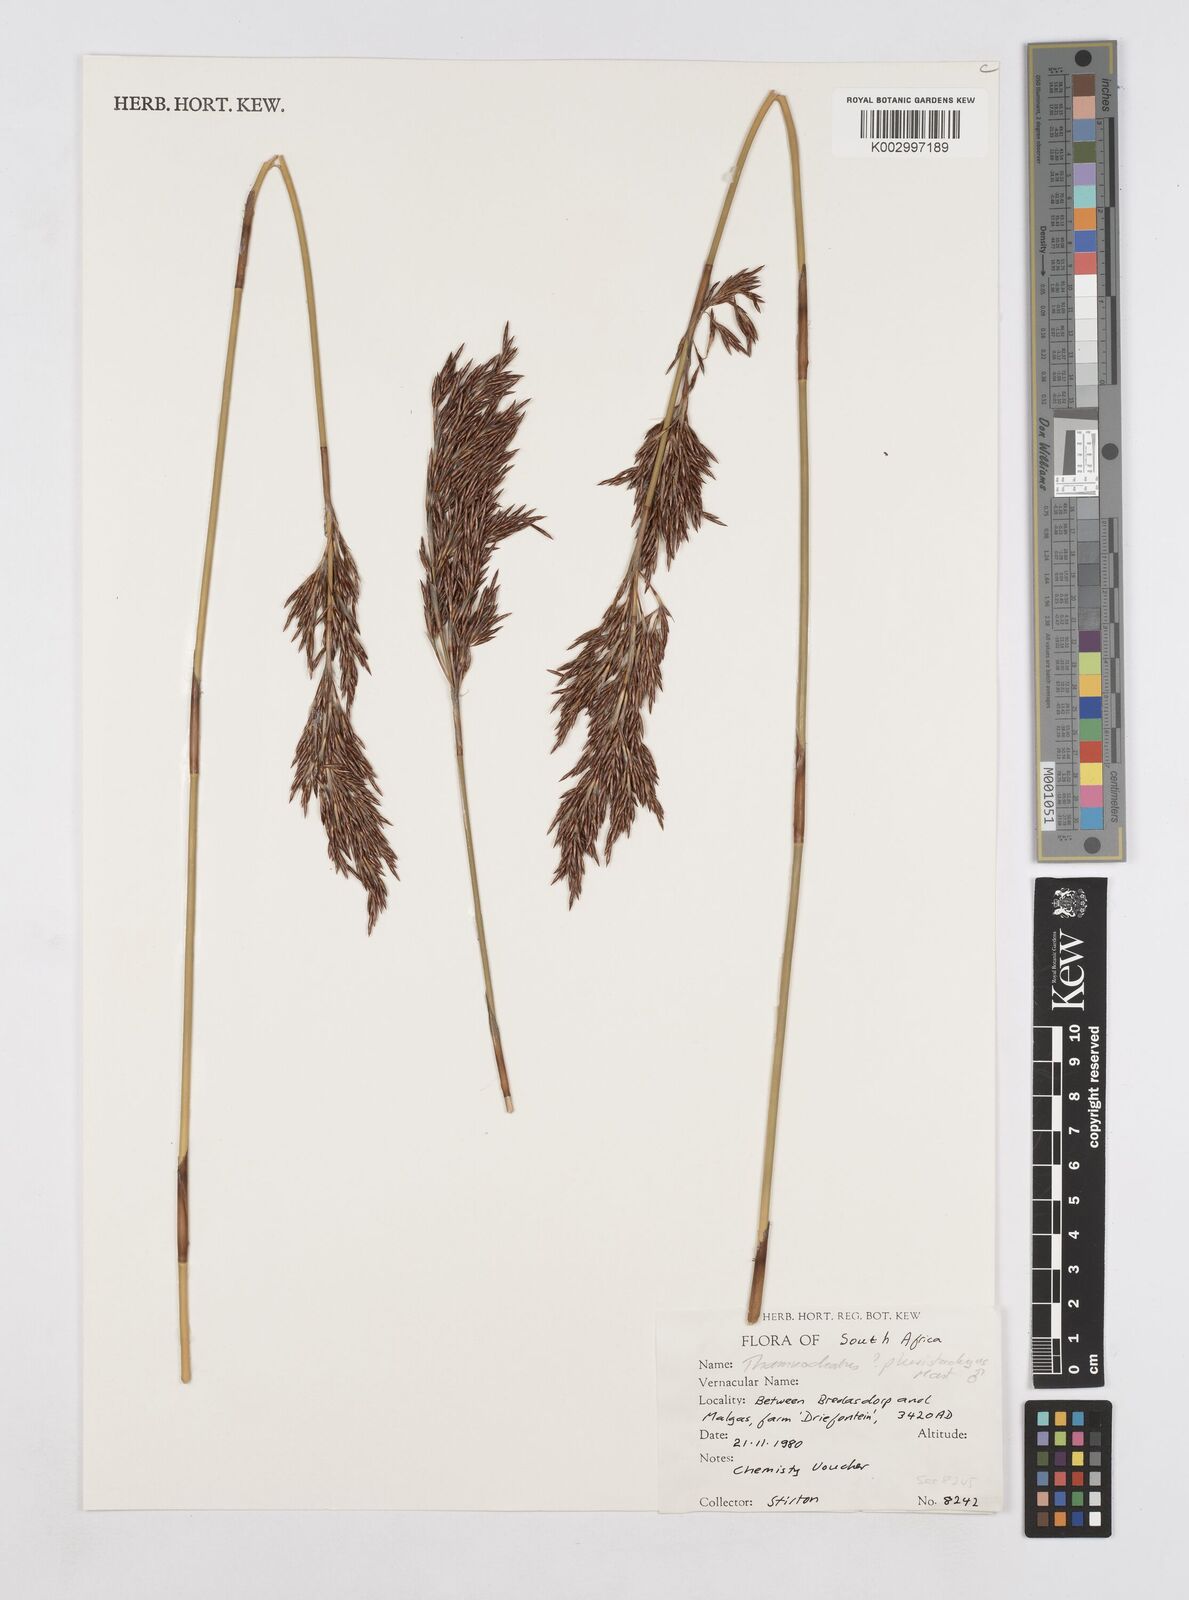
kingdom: Plantae
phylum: Tracheophyta
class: Liliopsida
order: Poales
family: Restionaceae
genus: Thamnochortus
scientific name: Thamnochortus pluristachyus
